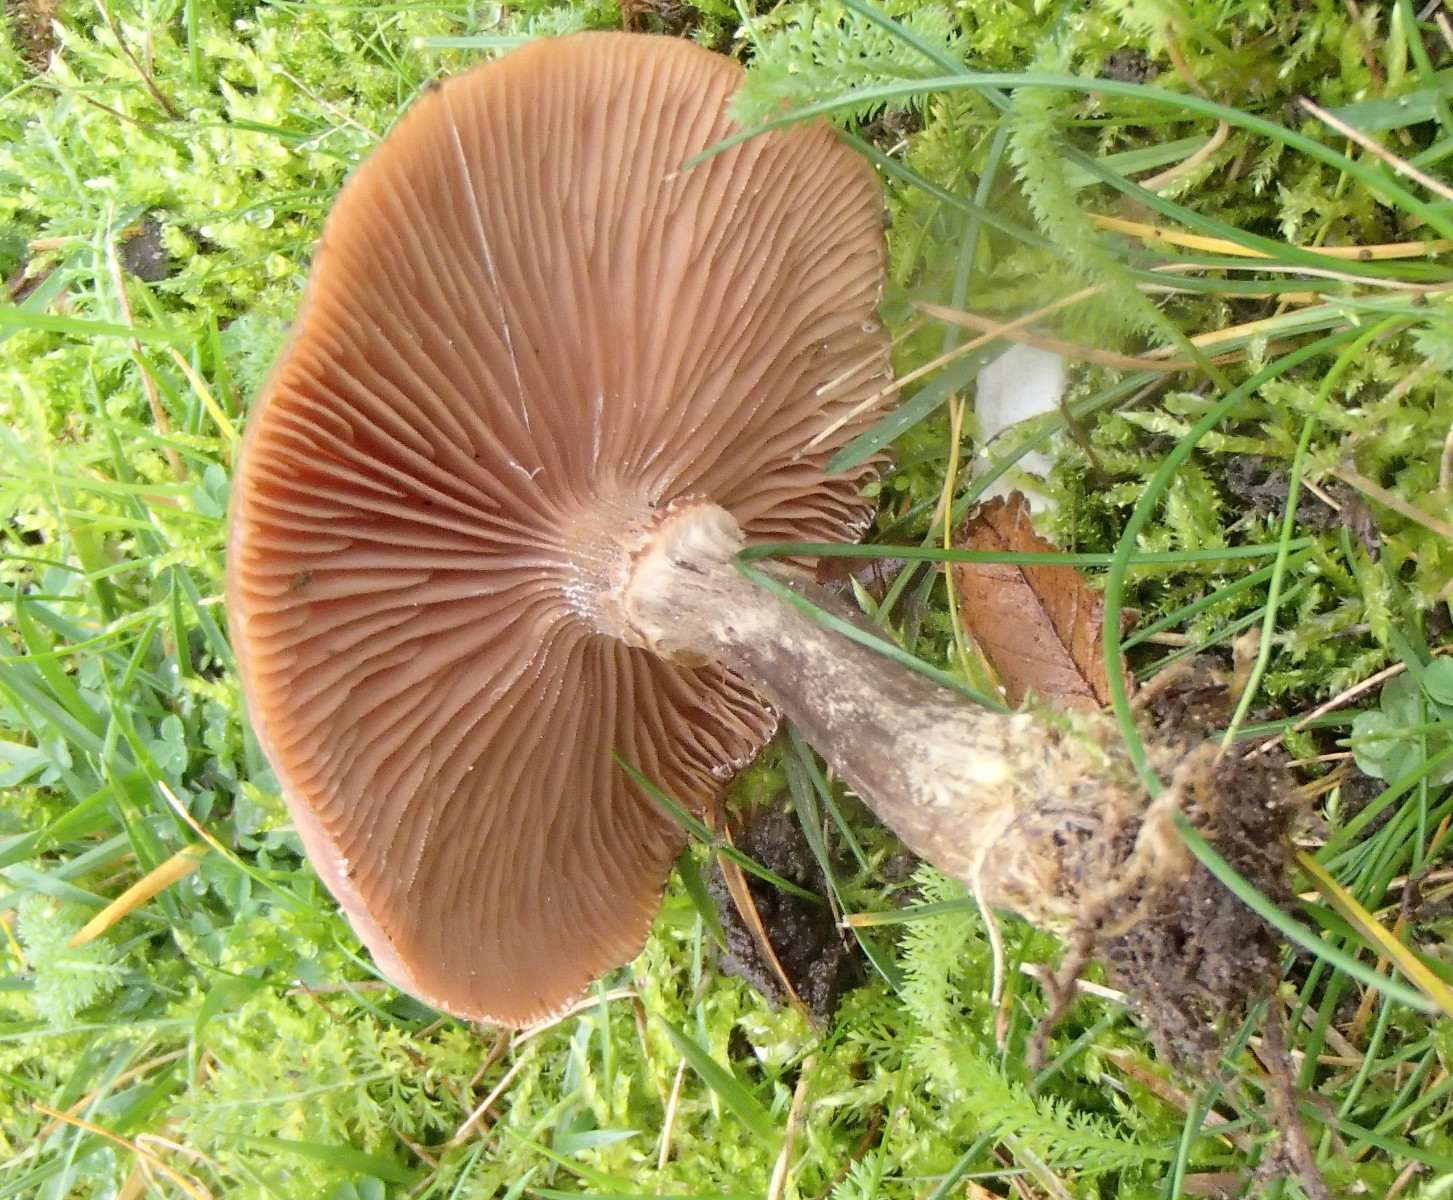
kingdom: Fungi
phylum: Basidiomycota
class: Agaricomycetes
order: Agaricales
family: Physalacriaceae
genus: Armillaria
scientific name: Armillaria
